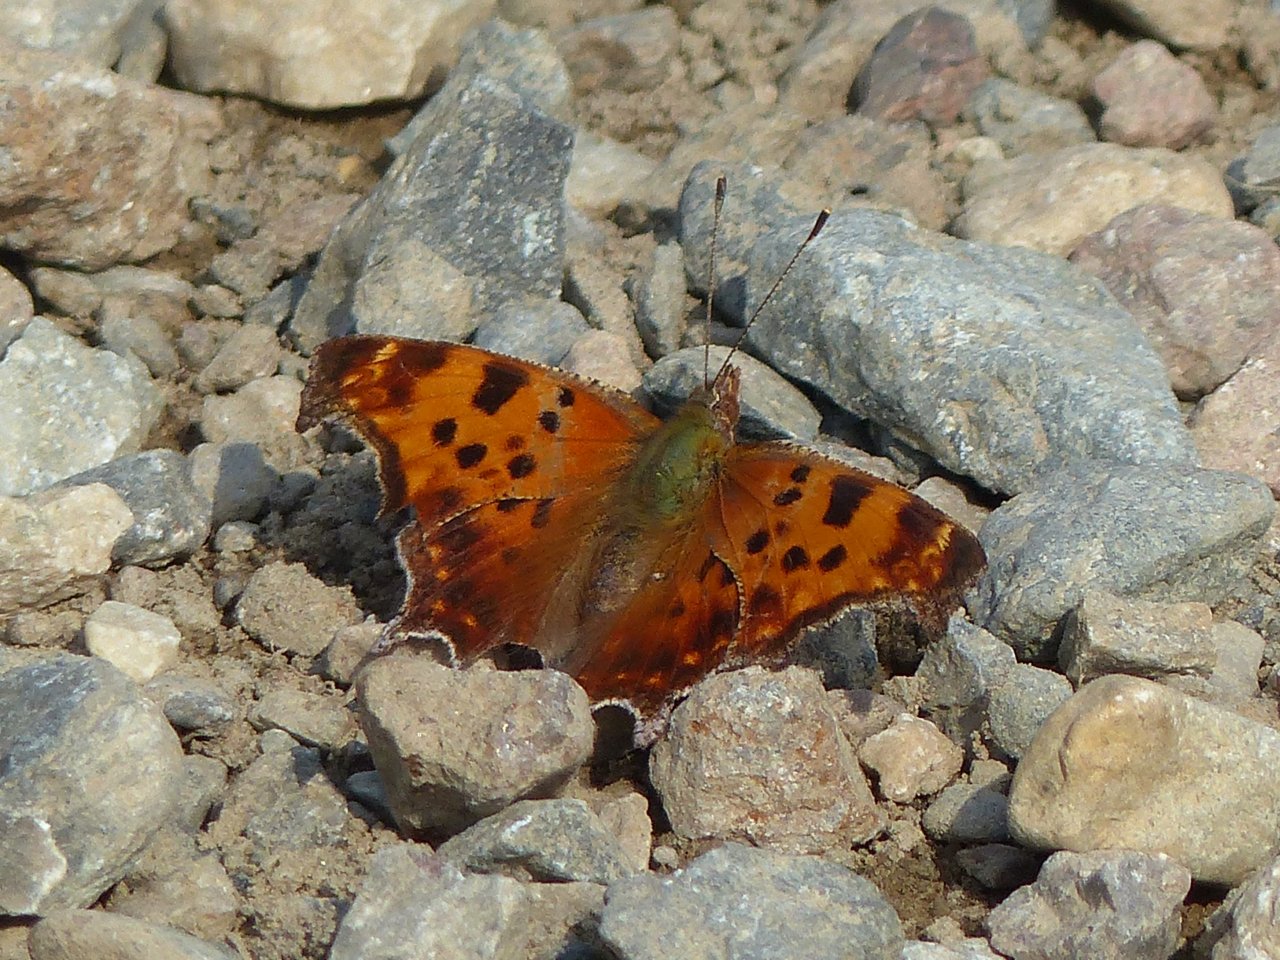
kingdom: Animalia
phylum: Arthropoda
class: Insecta
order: Lepidoptera
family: Nymphalidae
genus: Polygonia
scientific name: Polygonia comma
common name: Eastern Comma
